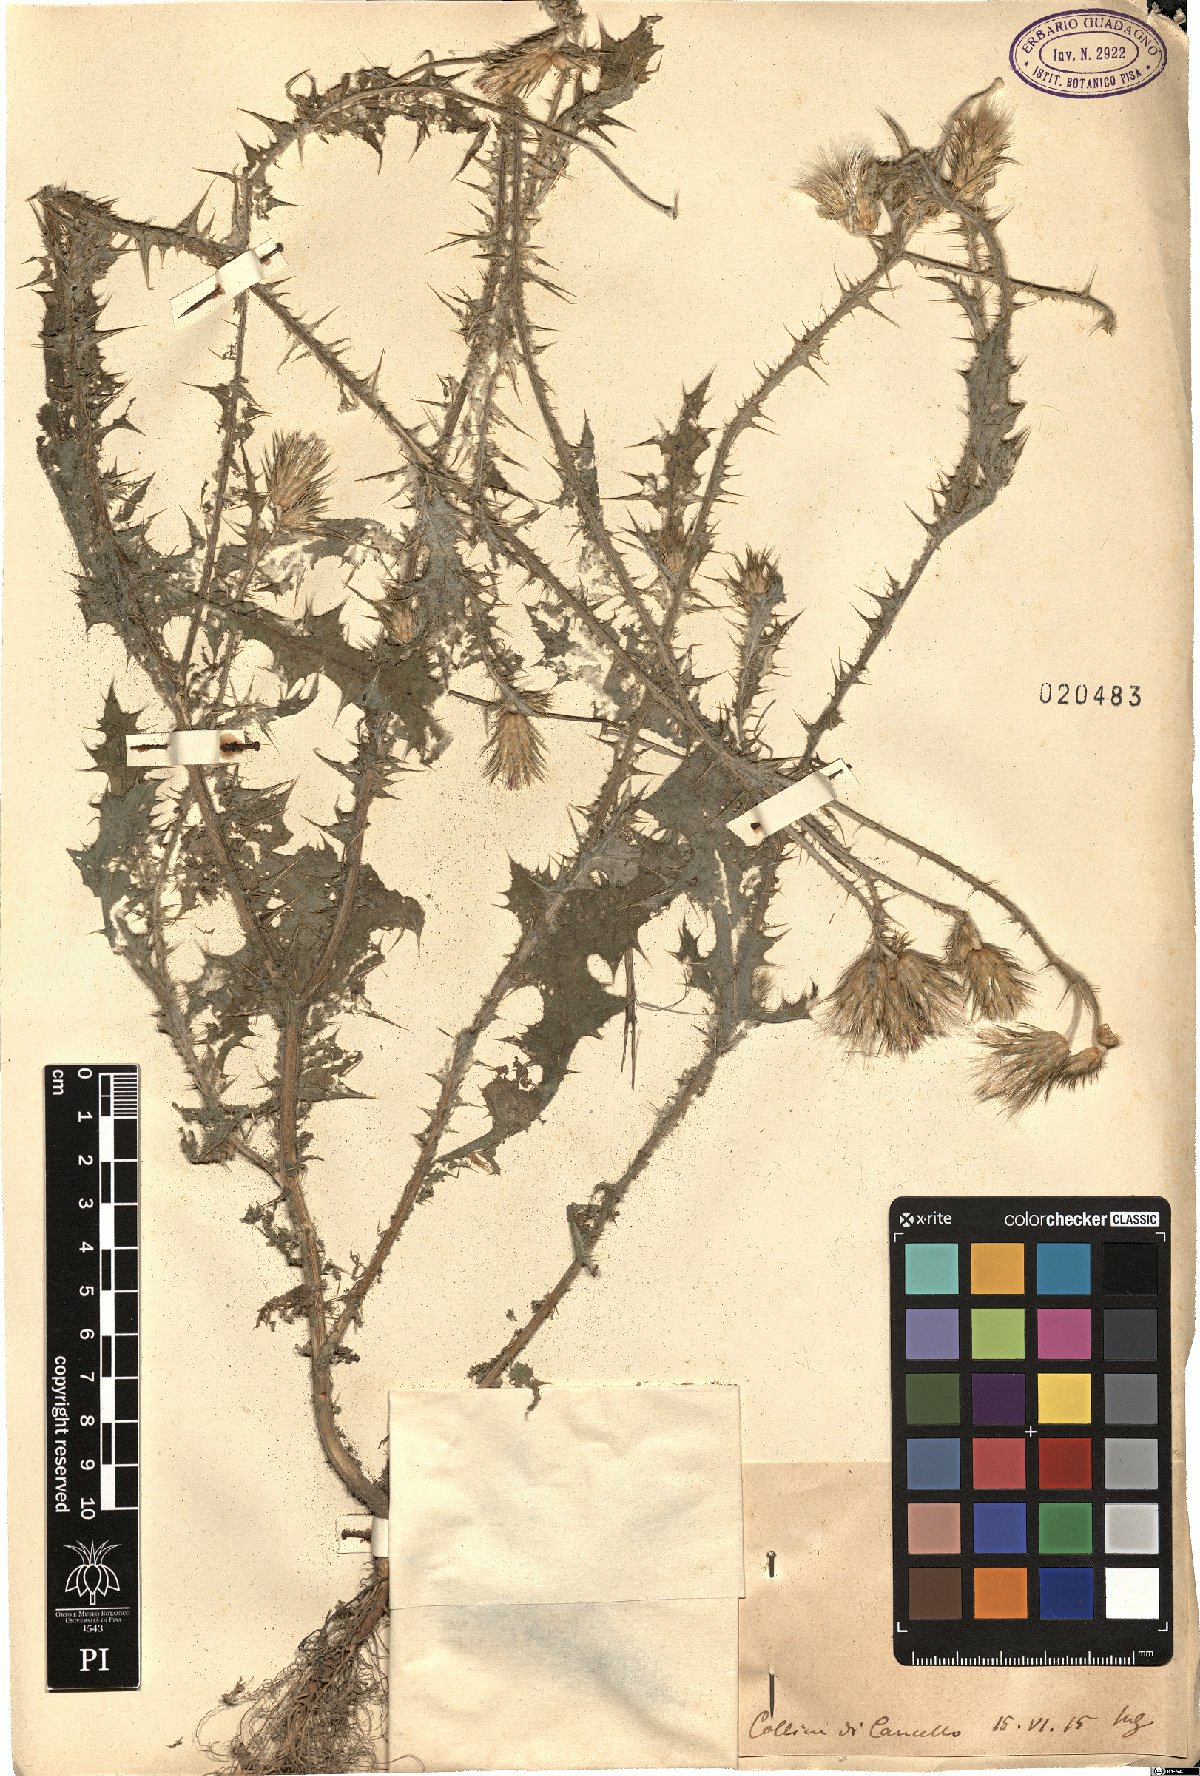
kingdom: Plantae
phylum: Tracheophyta
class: Magnoliopsida
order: Asterales
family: Asteraceae
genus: Carduus
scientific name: Carduus
